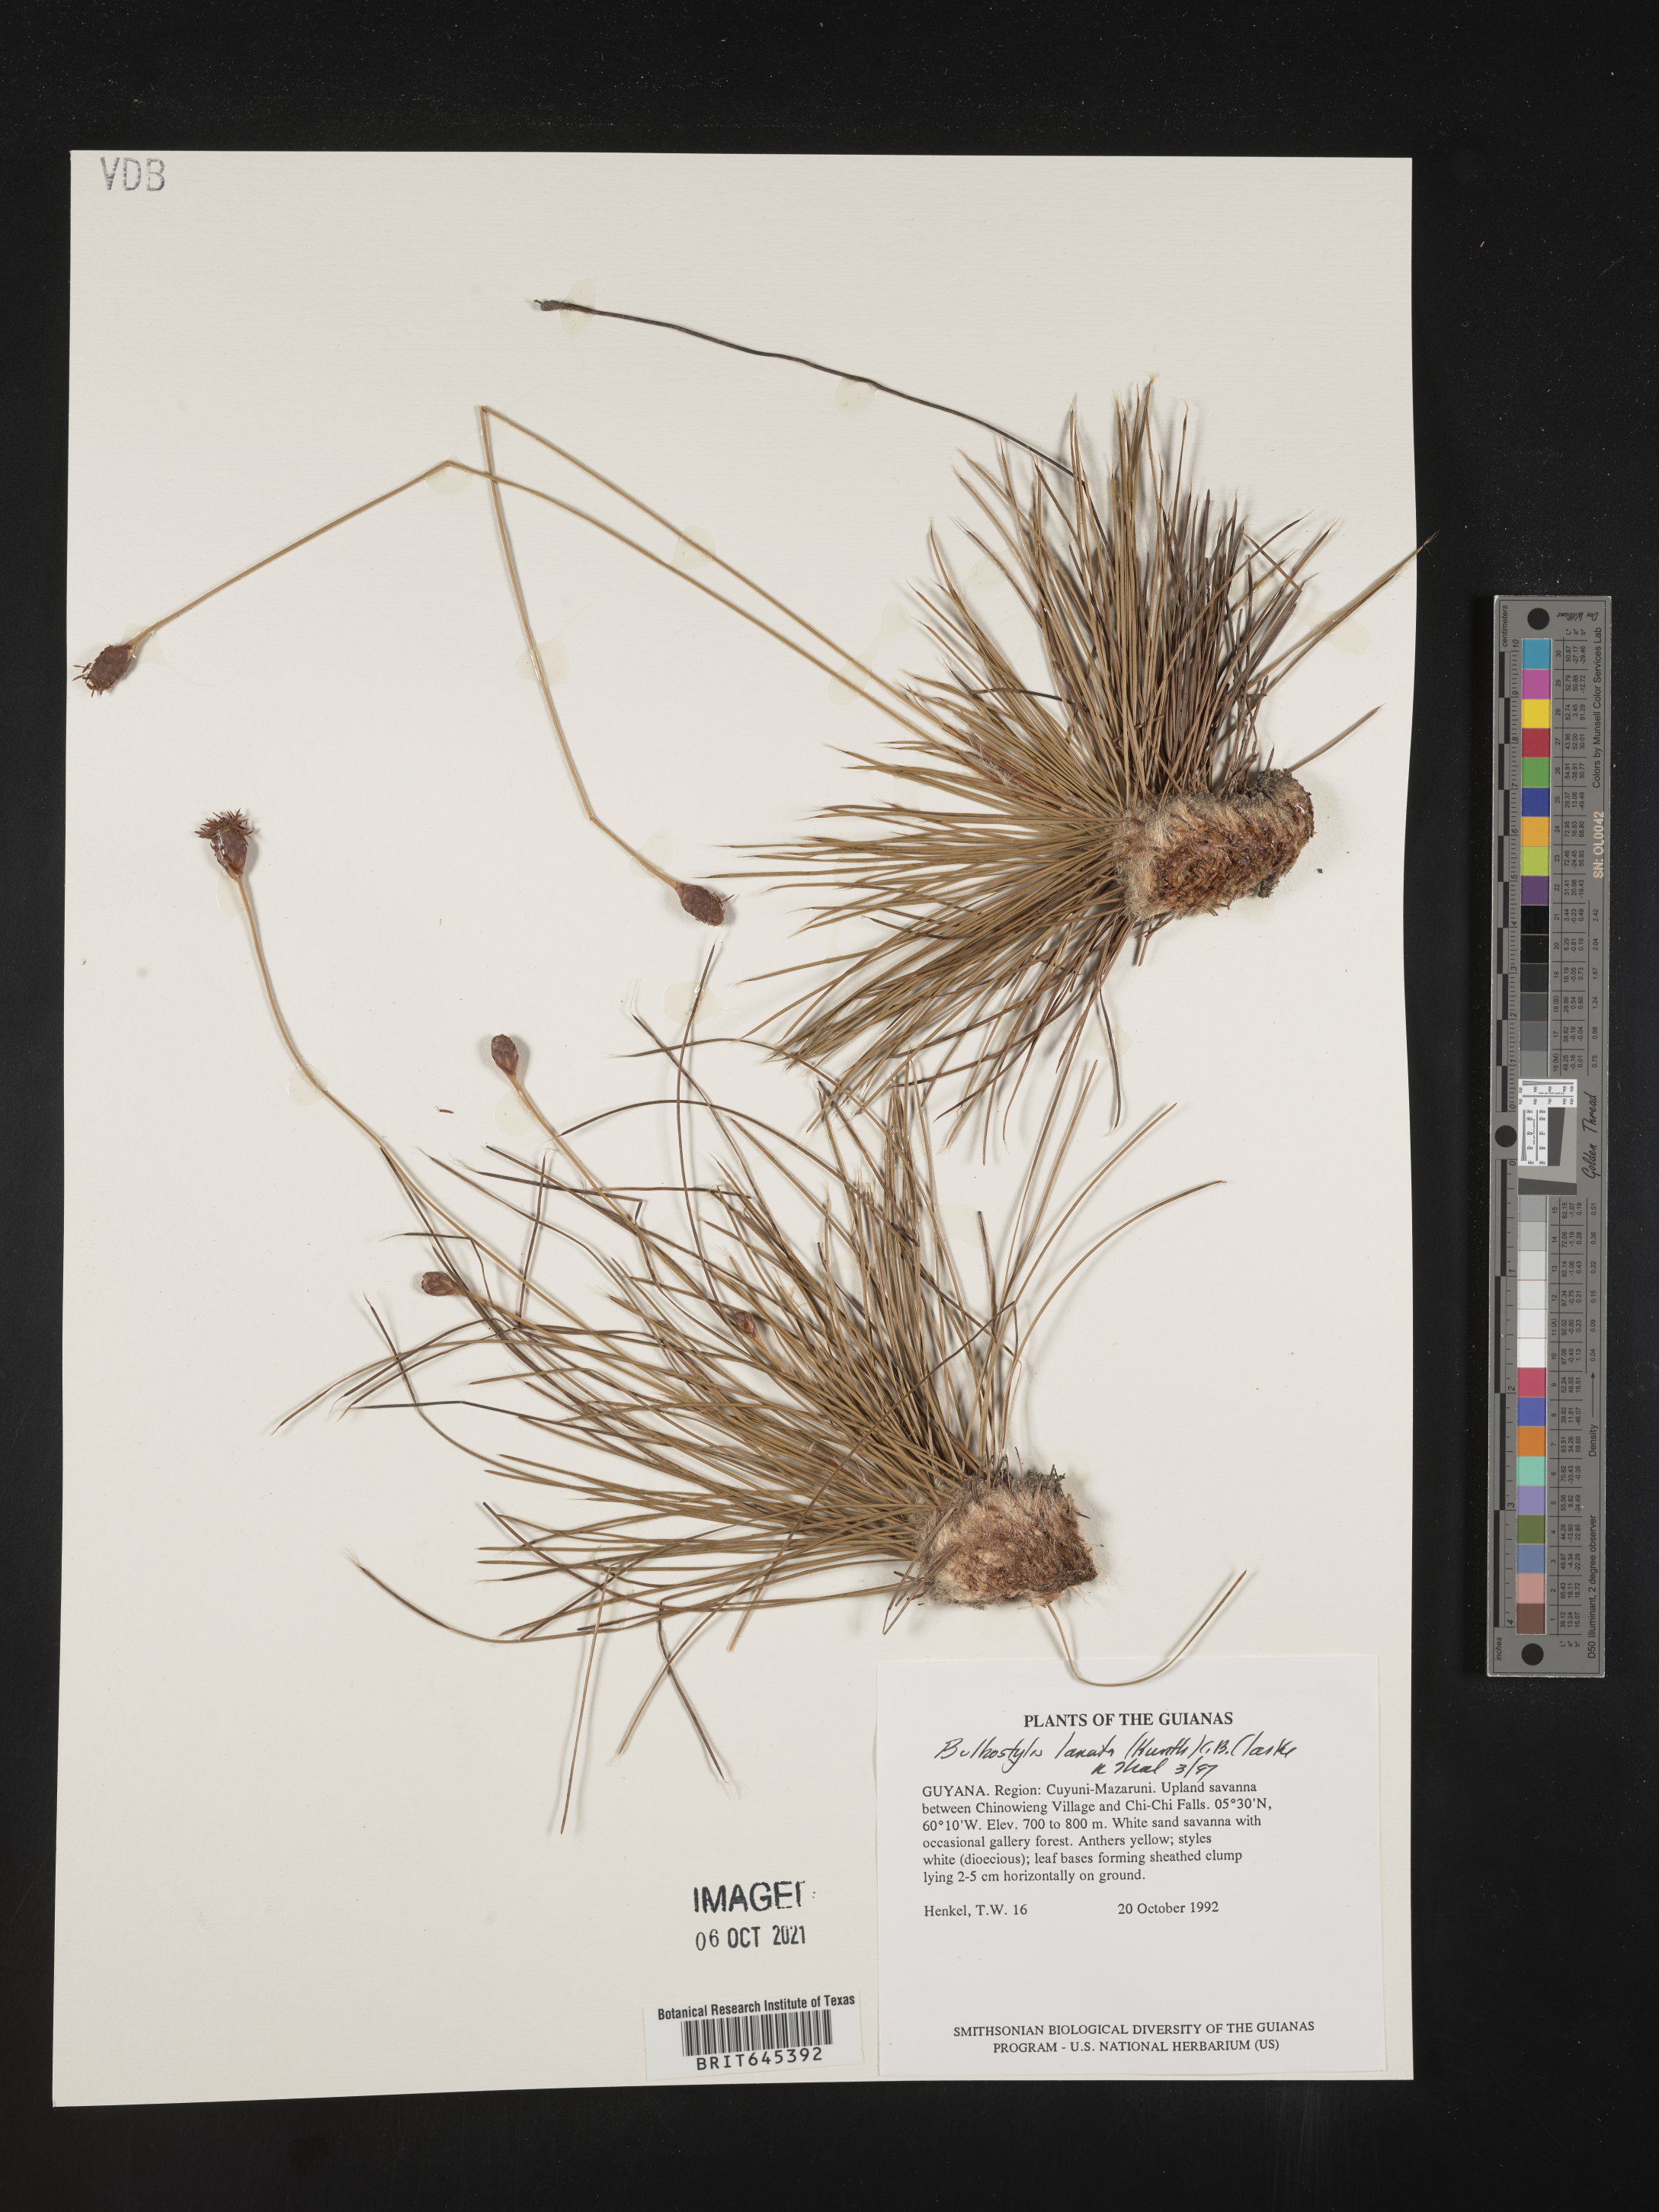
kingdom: Plantae
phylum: Tracheophyta
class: Liliopsida
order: Poales
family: Cyperaceae
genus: Bulbostylis
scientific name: Bulbostylis lanata
